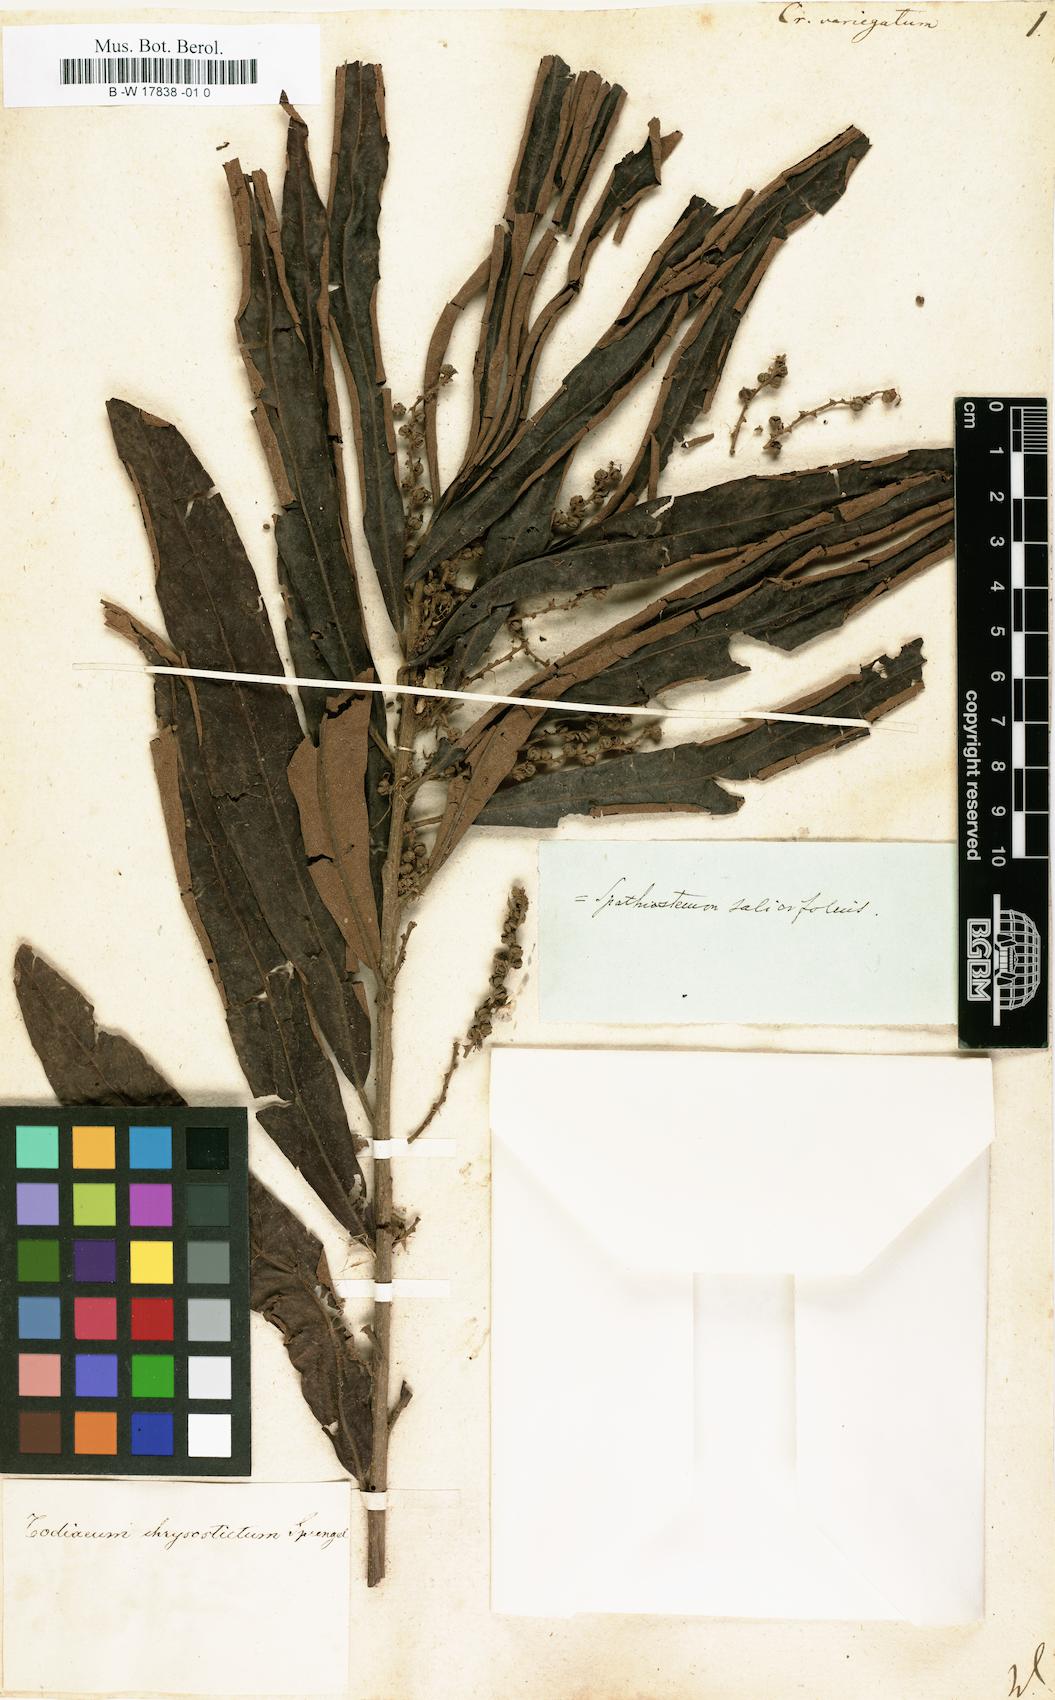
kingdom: Plantae
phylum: Tracheophyta
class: Magnoliopsida
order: Malpighiales
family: Euphorbiaceae
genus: Croton
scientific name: Croton variegatus
